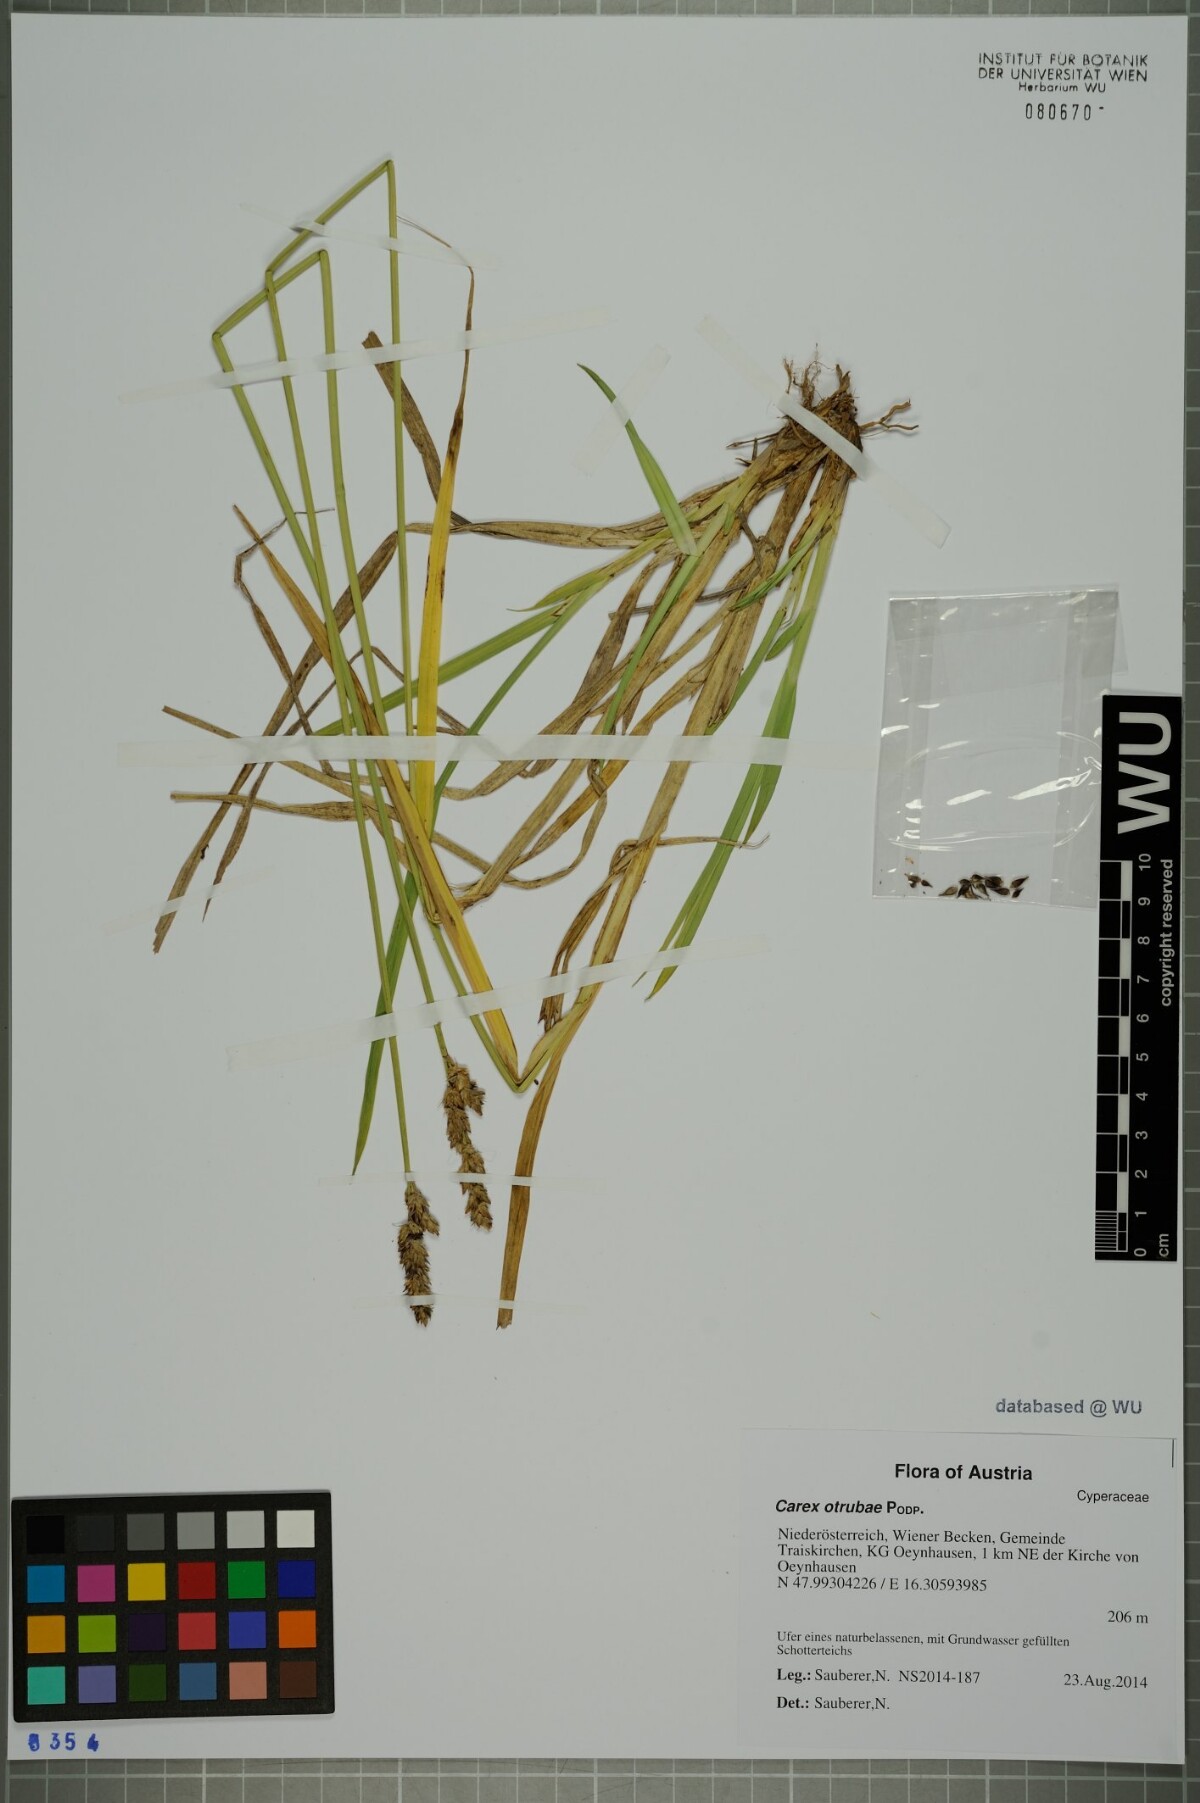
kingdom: Plantae
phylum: Tracheophyta
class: Liliopsida
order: Poales
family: Cyperaceae
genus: Carex
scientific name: Carex otrubae
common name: False fox-sedge
